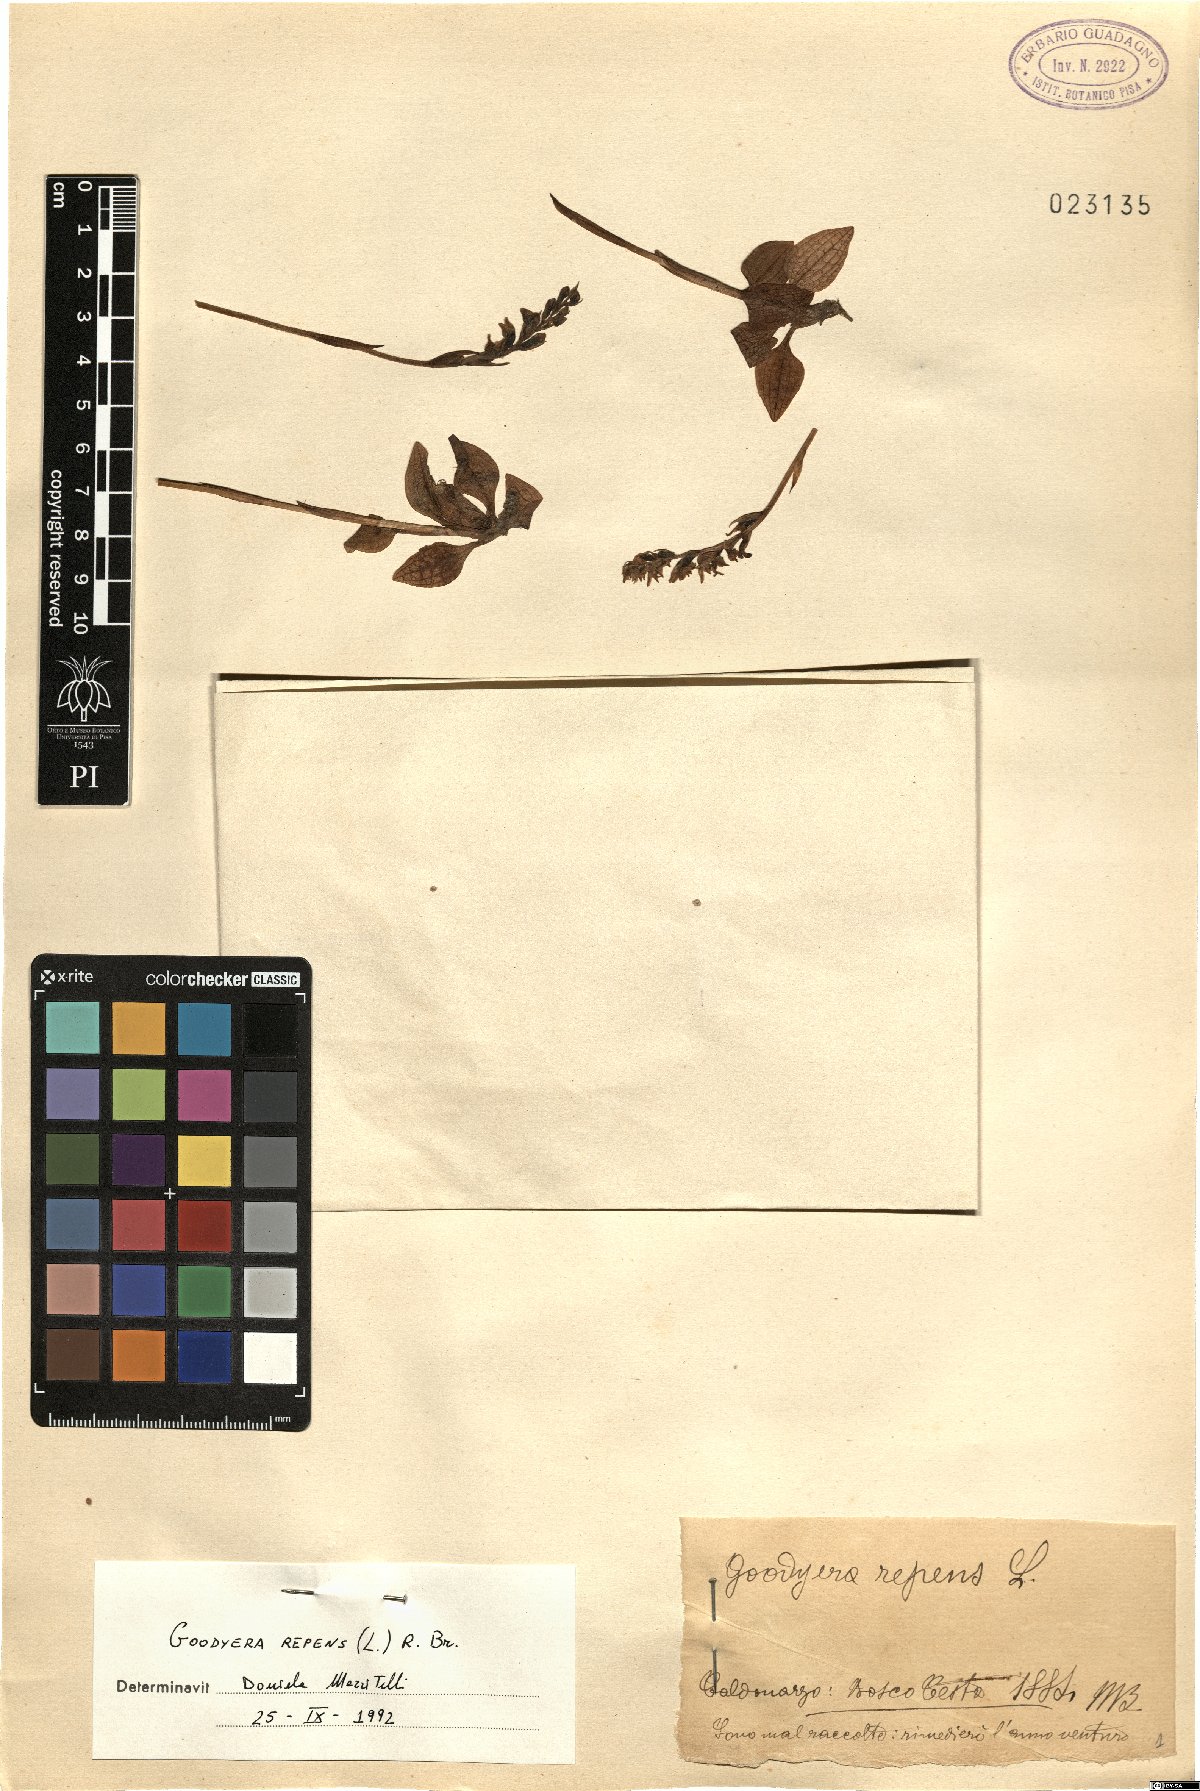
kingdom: Plantae
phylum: Tracheophyta
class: Liliopsida
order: Asparagales
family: Orchidaceae
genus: Goodyera
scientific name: Goodyera repens
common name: Creeping lady's-tresses
